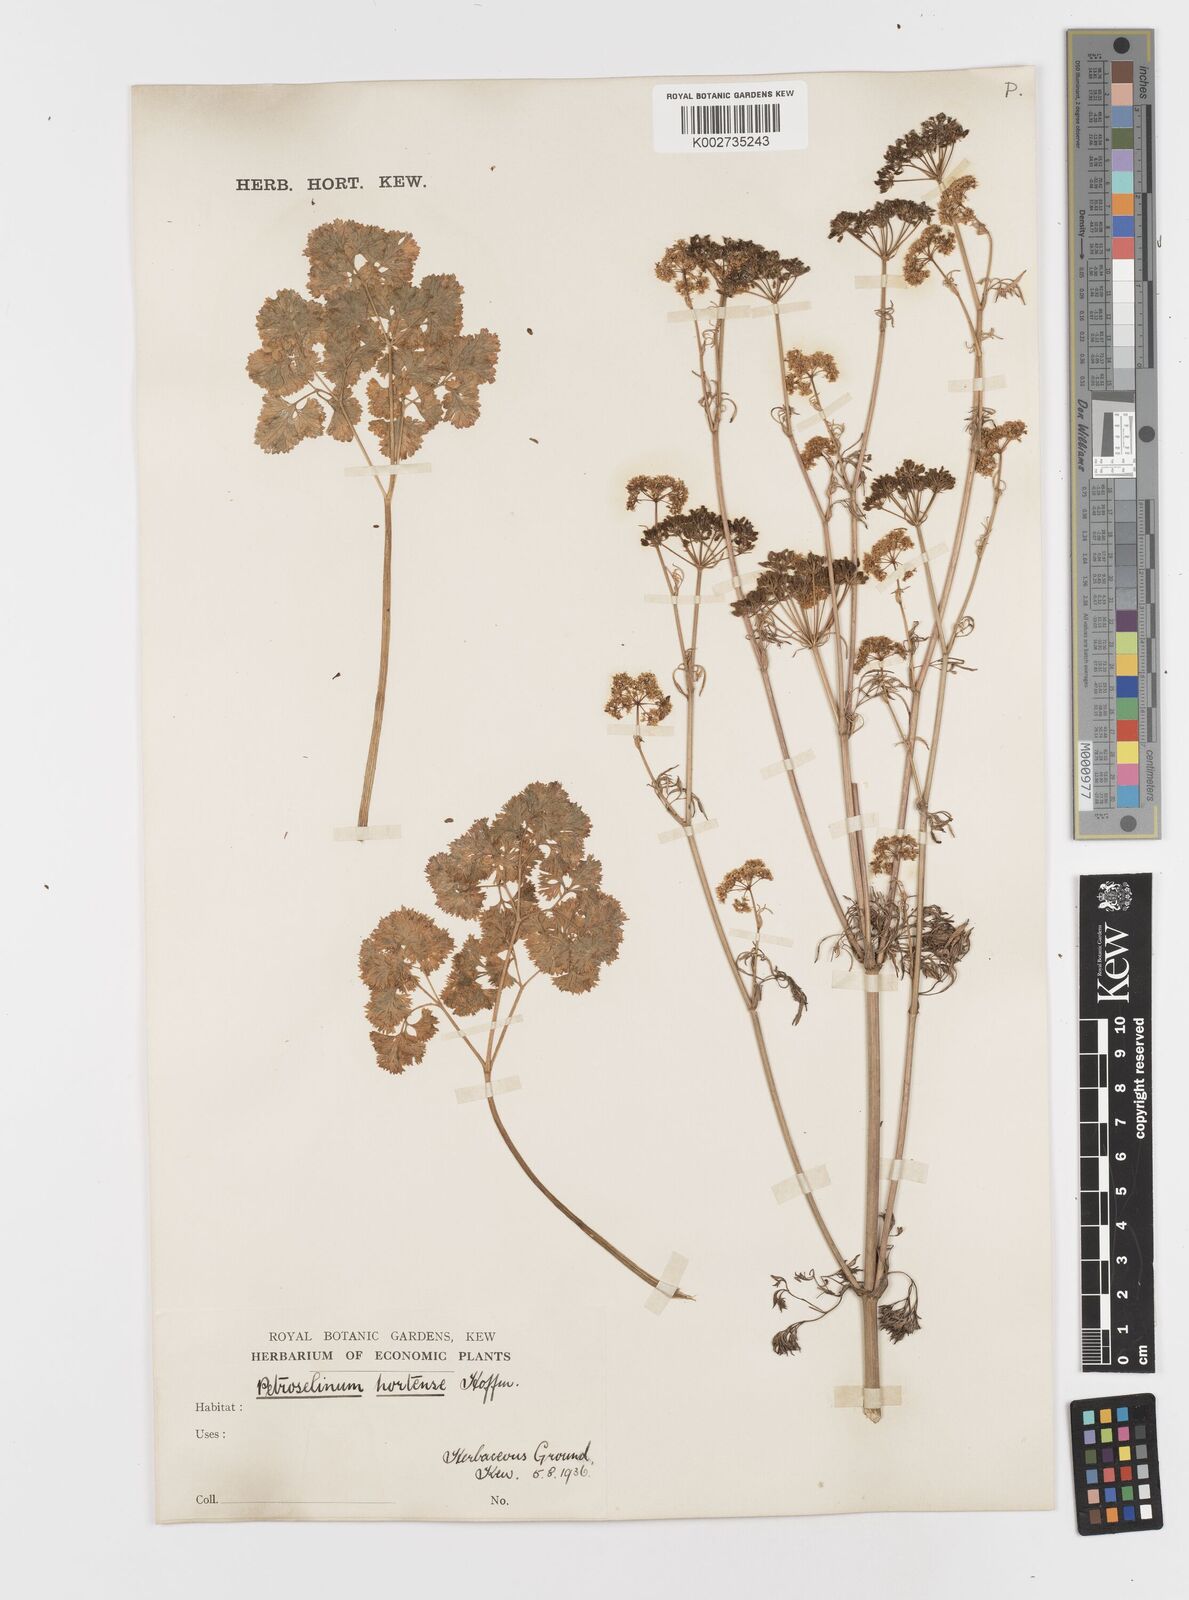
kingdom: Plantae
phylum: Tracheophyta
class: Magnoliopsida
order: Apiales
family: Apiaceae
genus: Petroselinum
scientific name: Petroselinum crispum
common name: Parsley
